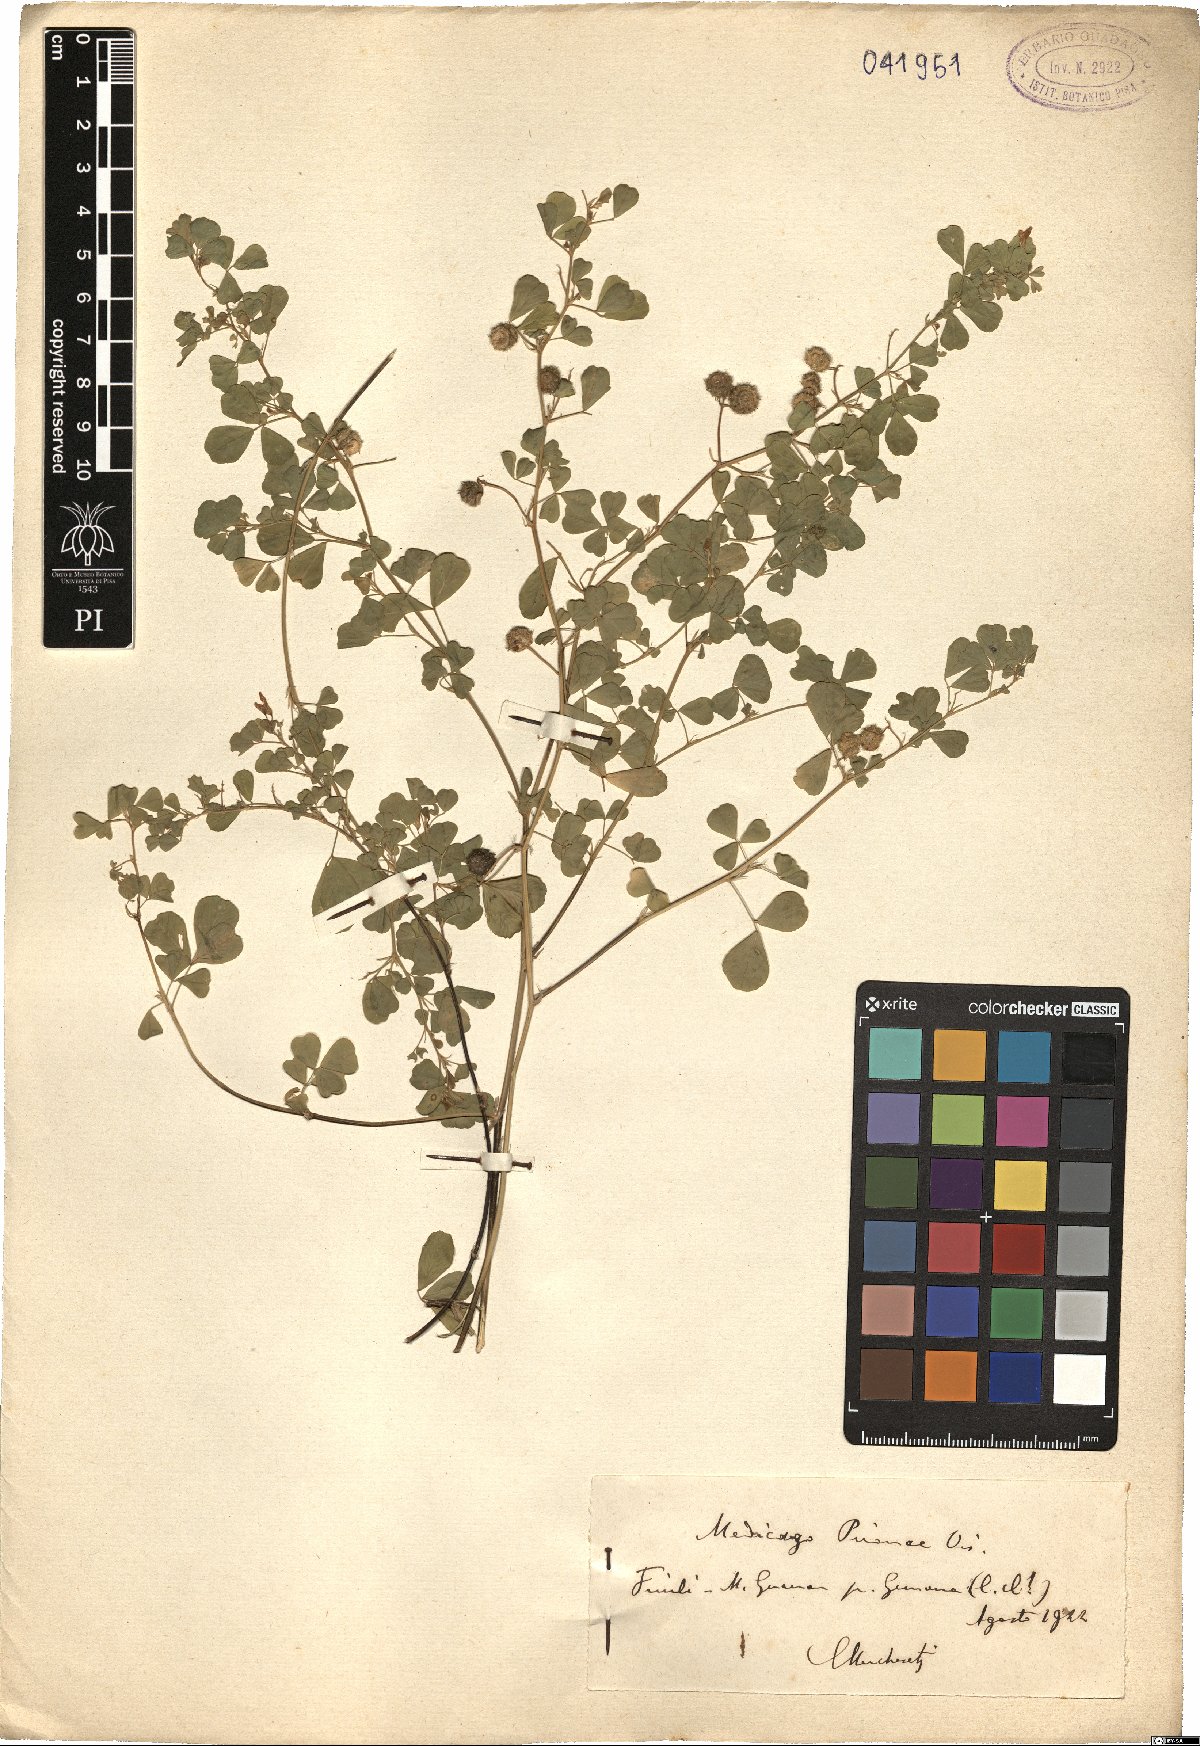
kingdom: Plantae
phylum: Tracheophyta
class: Magnoliopsida
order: Fabales
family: Fabaceae
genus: Medicago
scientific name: Medicago pironae
